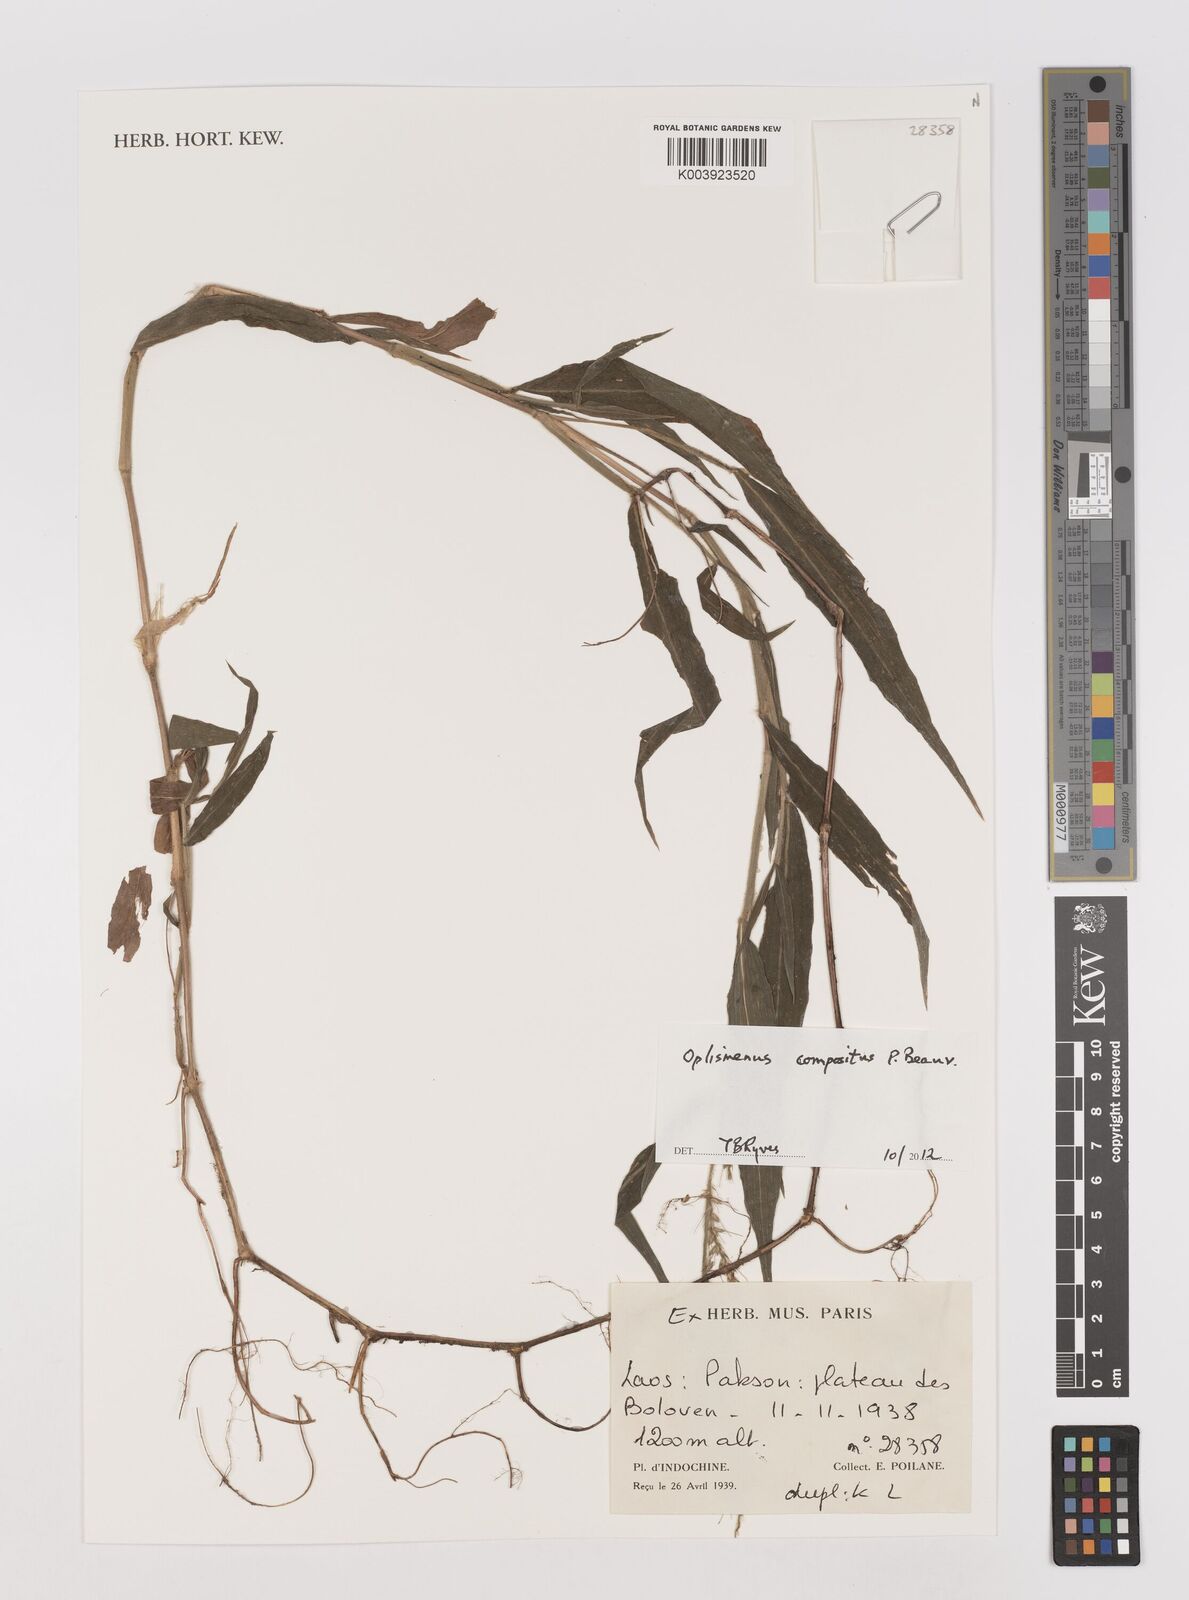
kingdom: Plantae
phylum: Tracheophyta
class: Liliopsida
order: Poales
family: Poaceae
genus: Oplismenus
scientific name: Oplismenus compositus
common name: Running mountain grass
